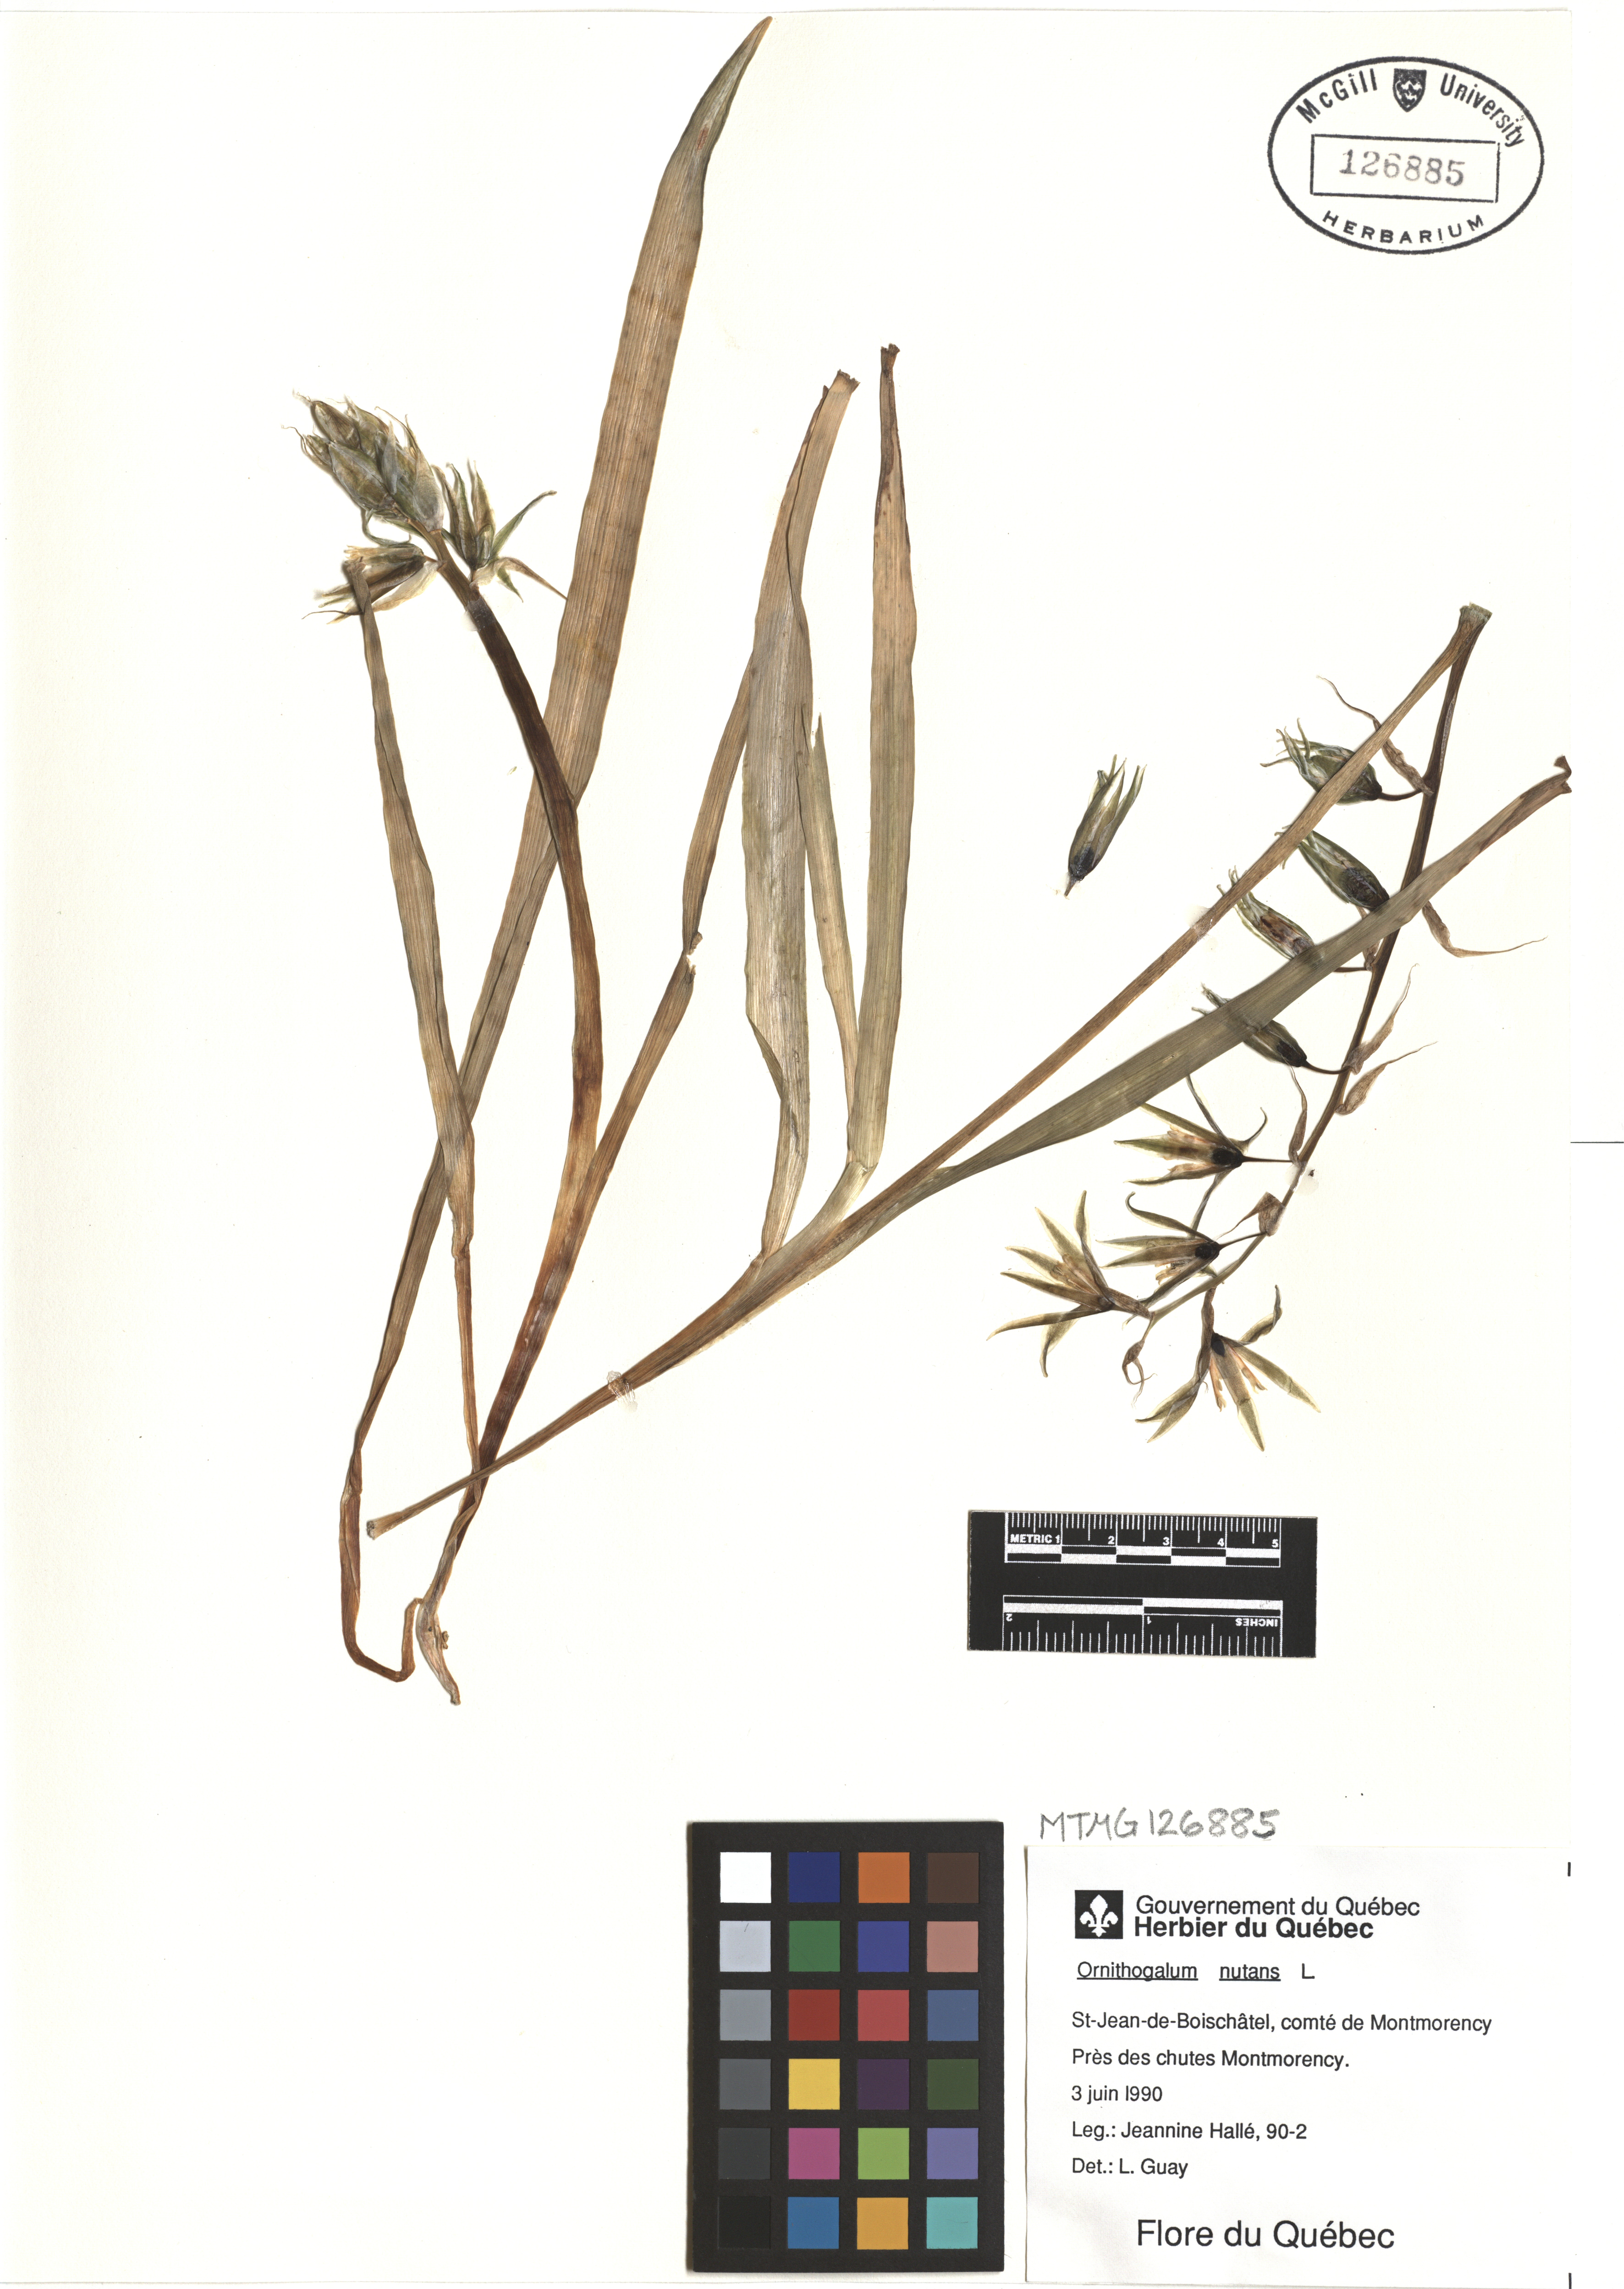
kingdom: Plantae
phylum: Tracheophyta
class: Liliopsida
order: Asparagales
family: Asparagaceae
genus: Ornithogalum
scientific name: Ornithogalum nutans
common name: Drooping star-of-bethlehem
